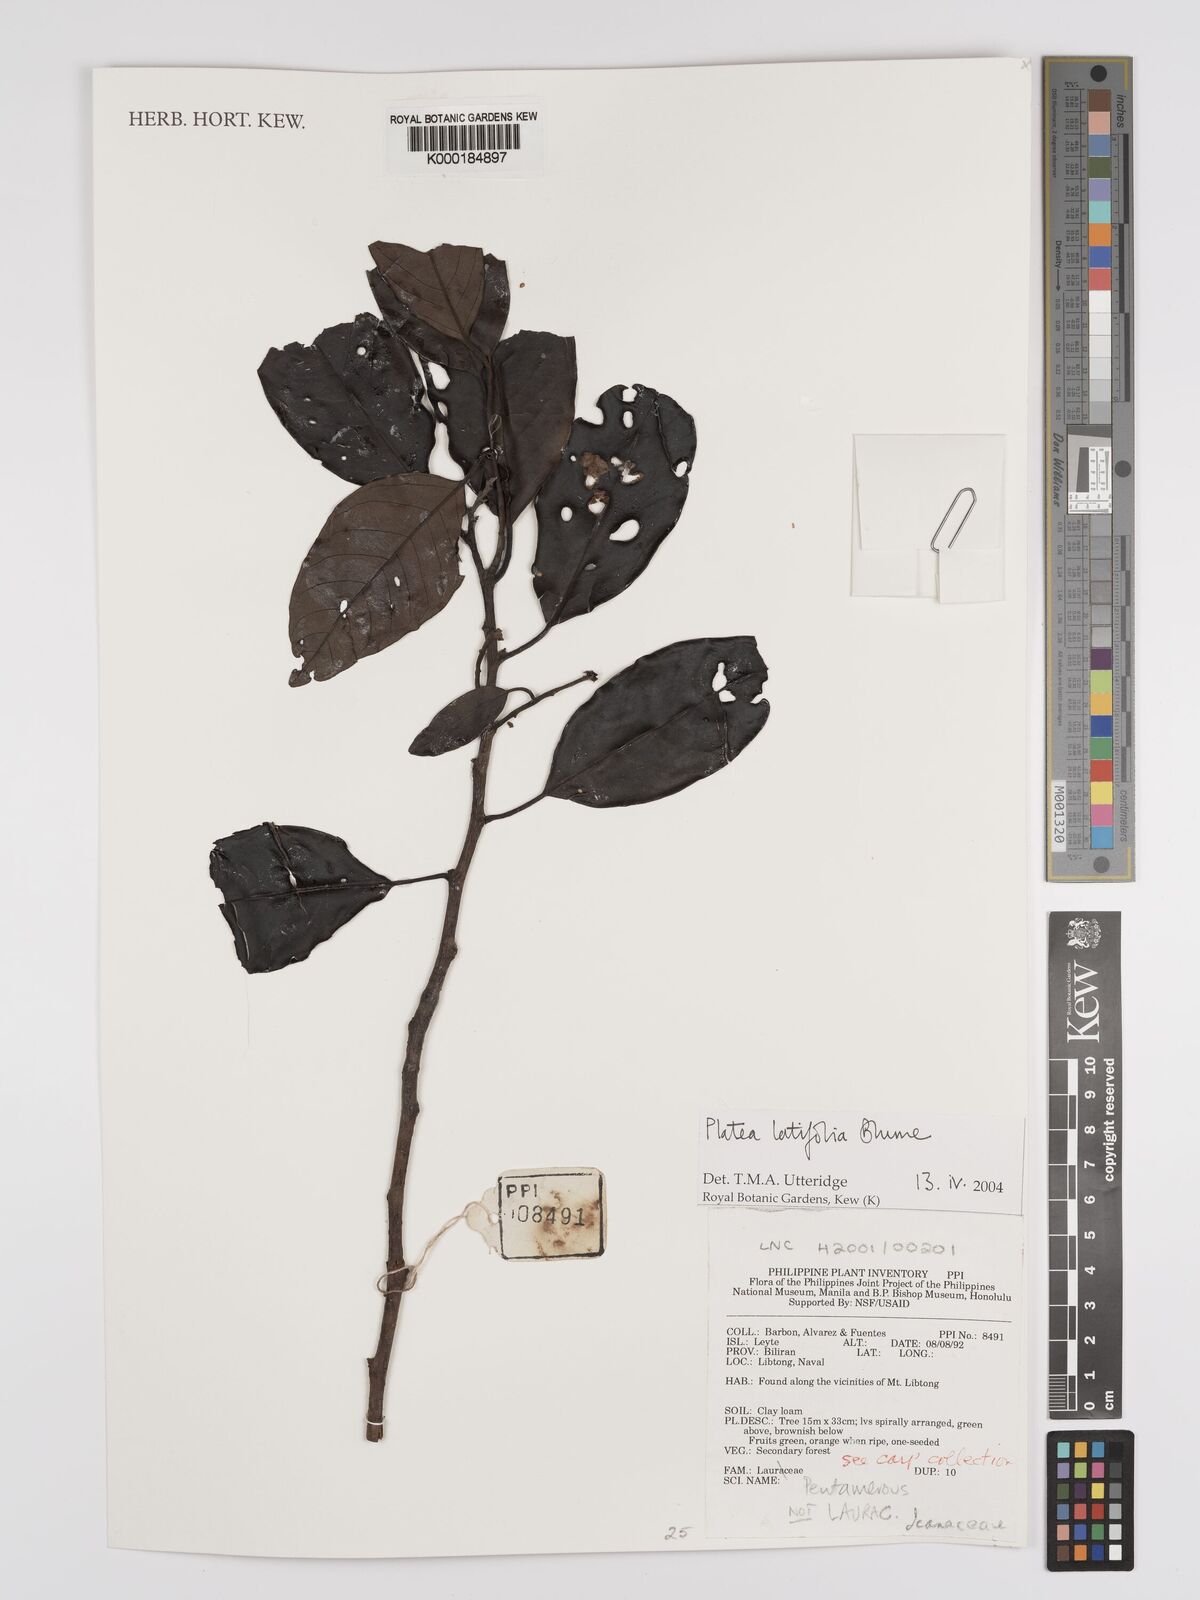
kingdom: Plantae
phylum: Tracheophyta
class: Magnoliopsida
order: Metteniusales
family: Metteniusaceae
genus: Platea
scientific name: Platea latifolia
